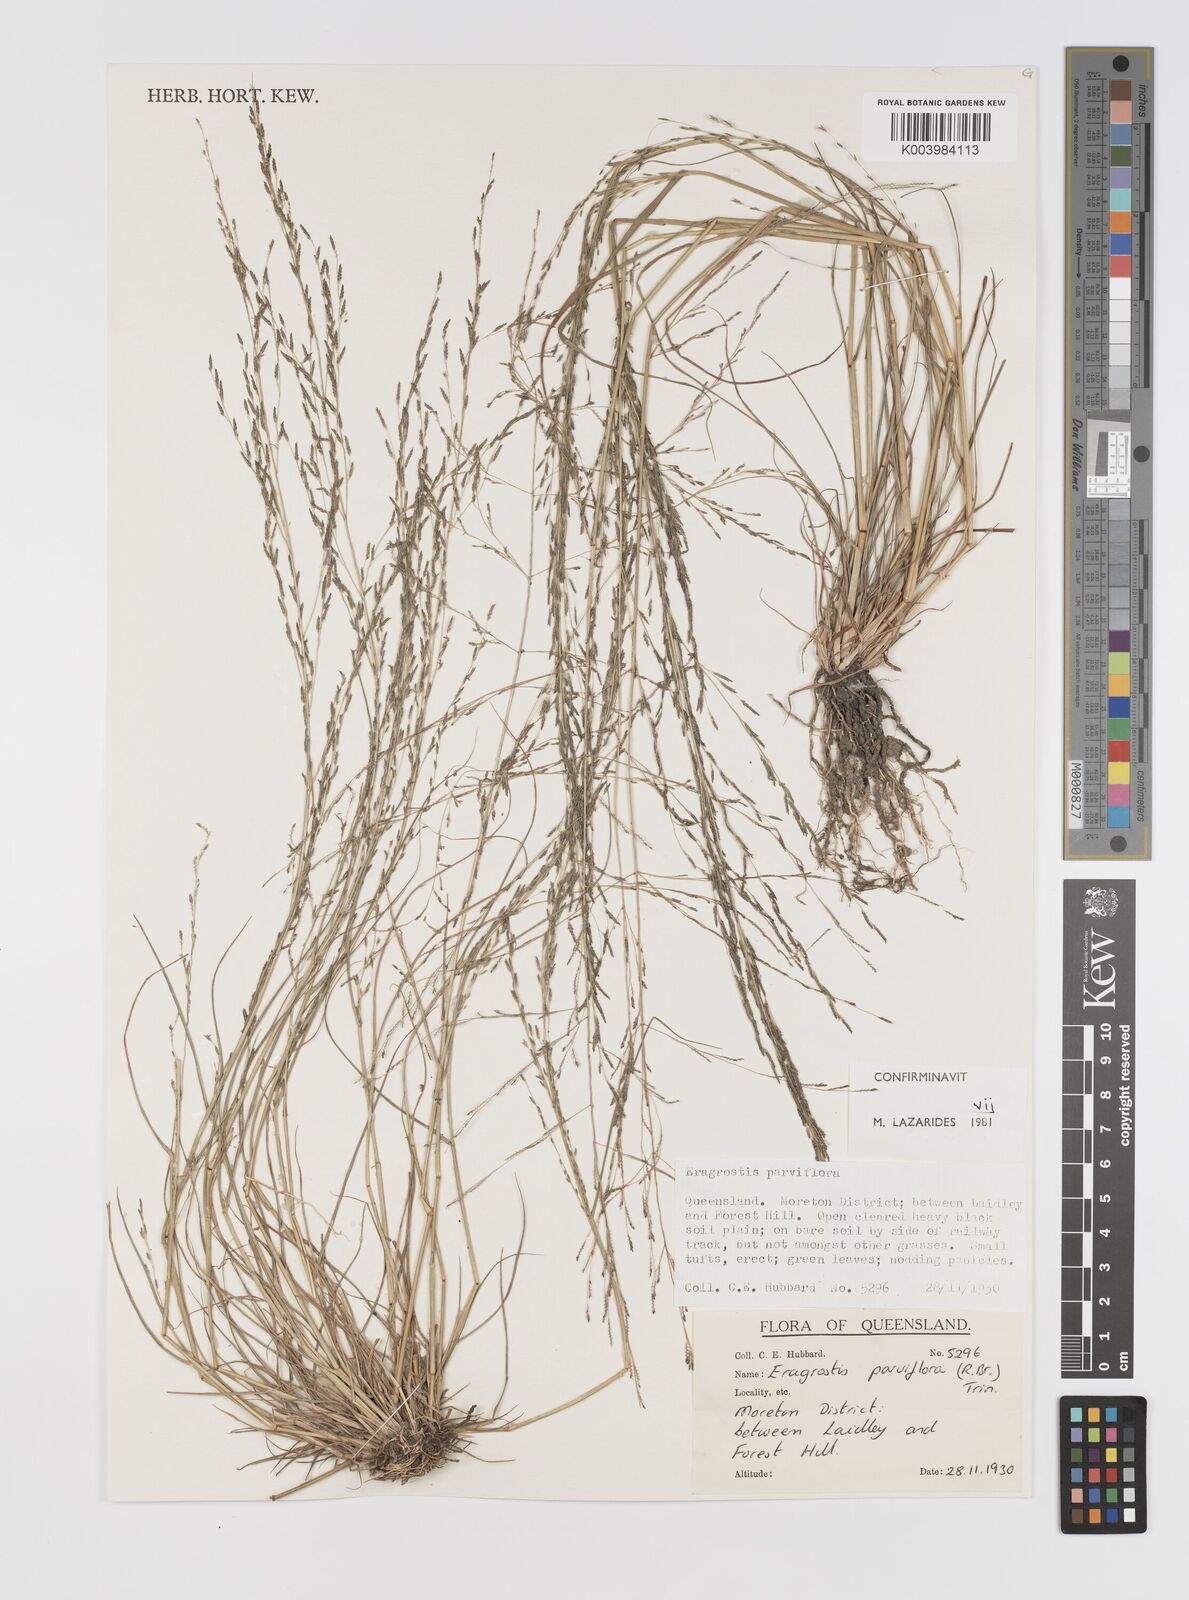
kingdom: Plantae
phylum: Tracheophyta
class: Liliopsida
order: Poales
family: Poaceae
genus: Eragrostis
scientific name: Eragrostis parviflora
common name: Weeping love-grass
